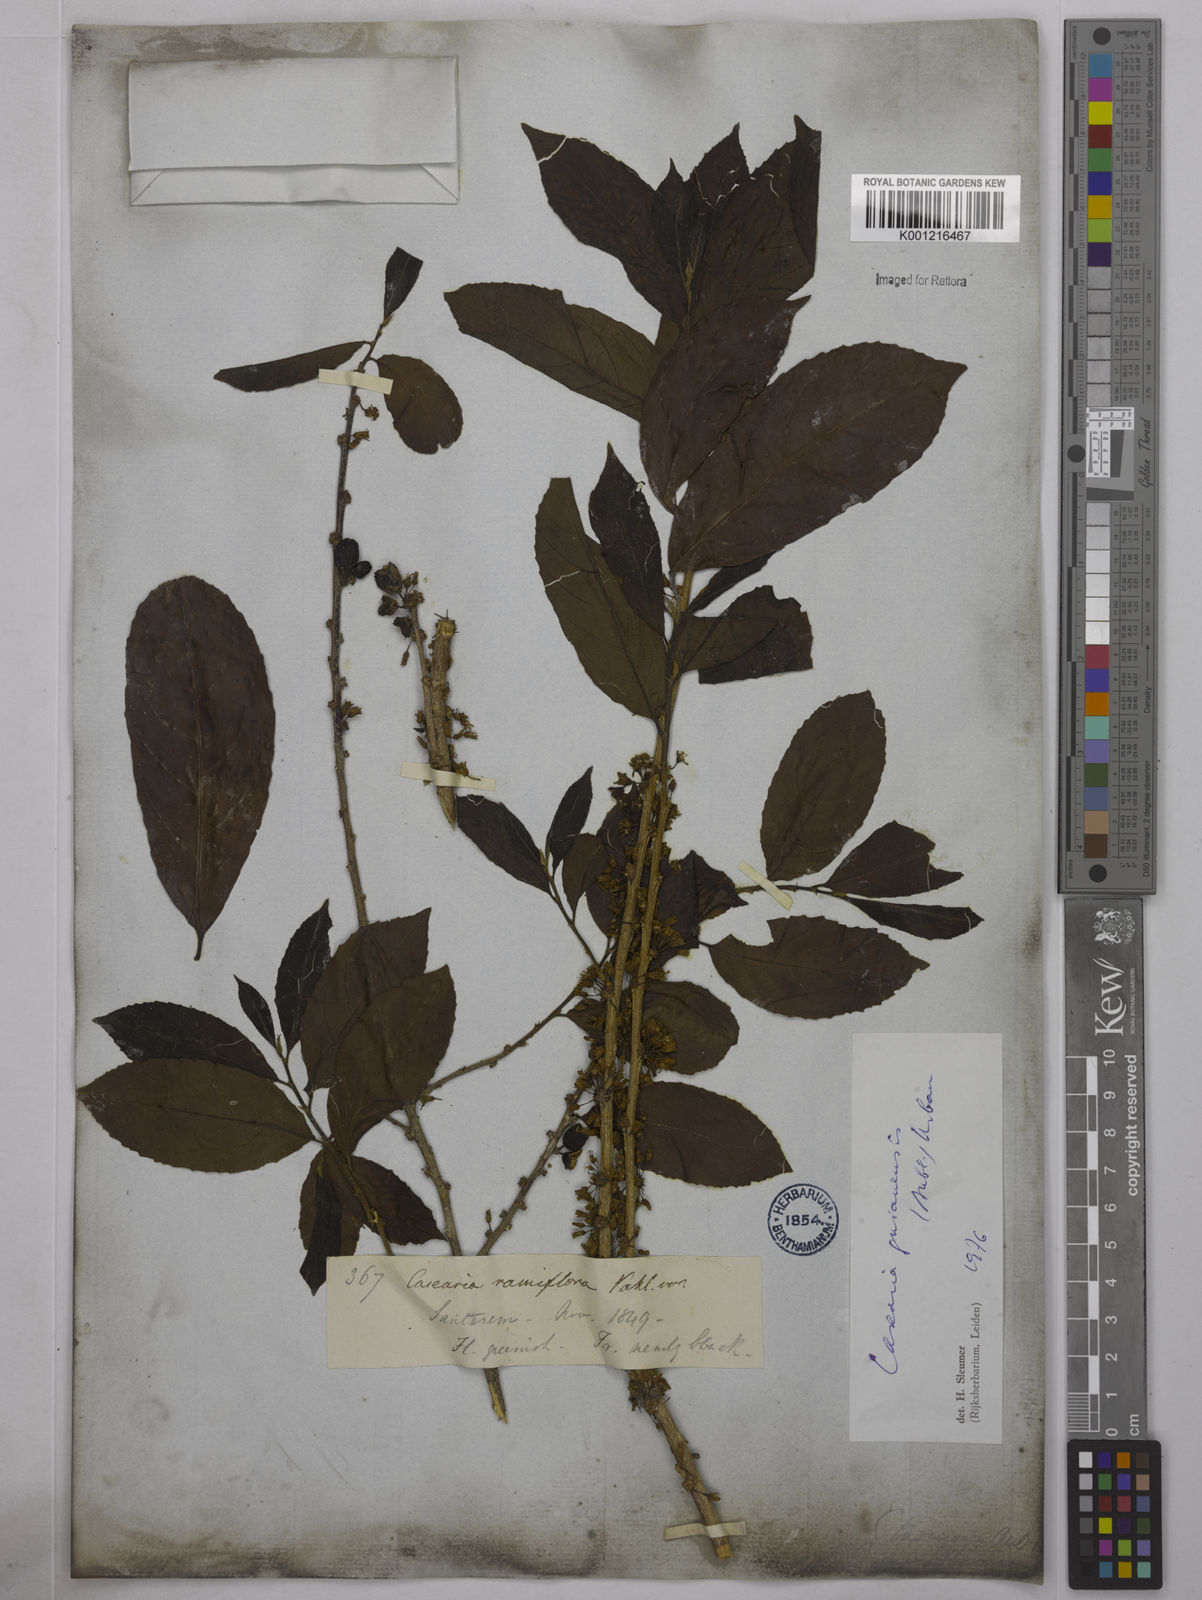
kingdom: Plantae
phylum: Tracheophyta
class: Magnoliopsida
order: Malpighiales
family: Salicaceae
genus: Casearia
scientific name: Casearia guianensis
